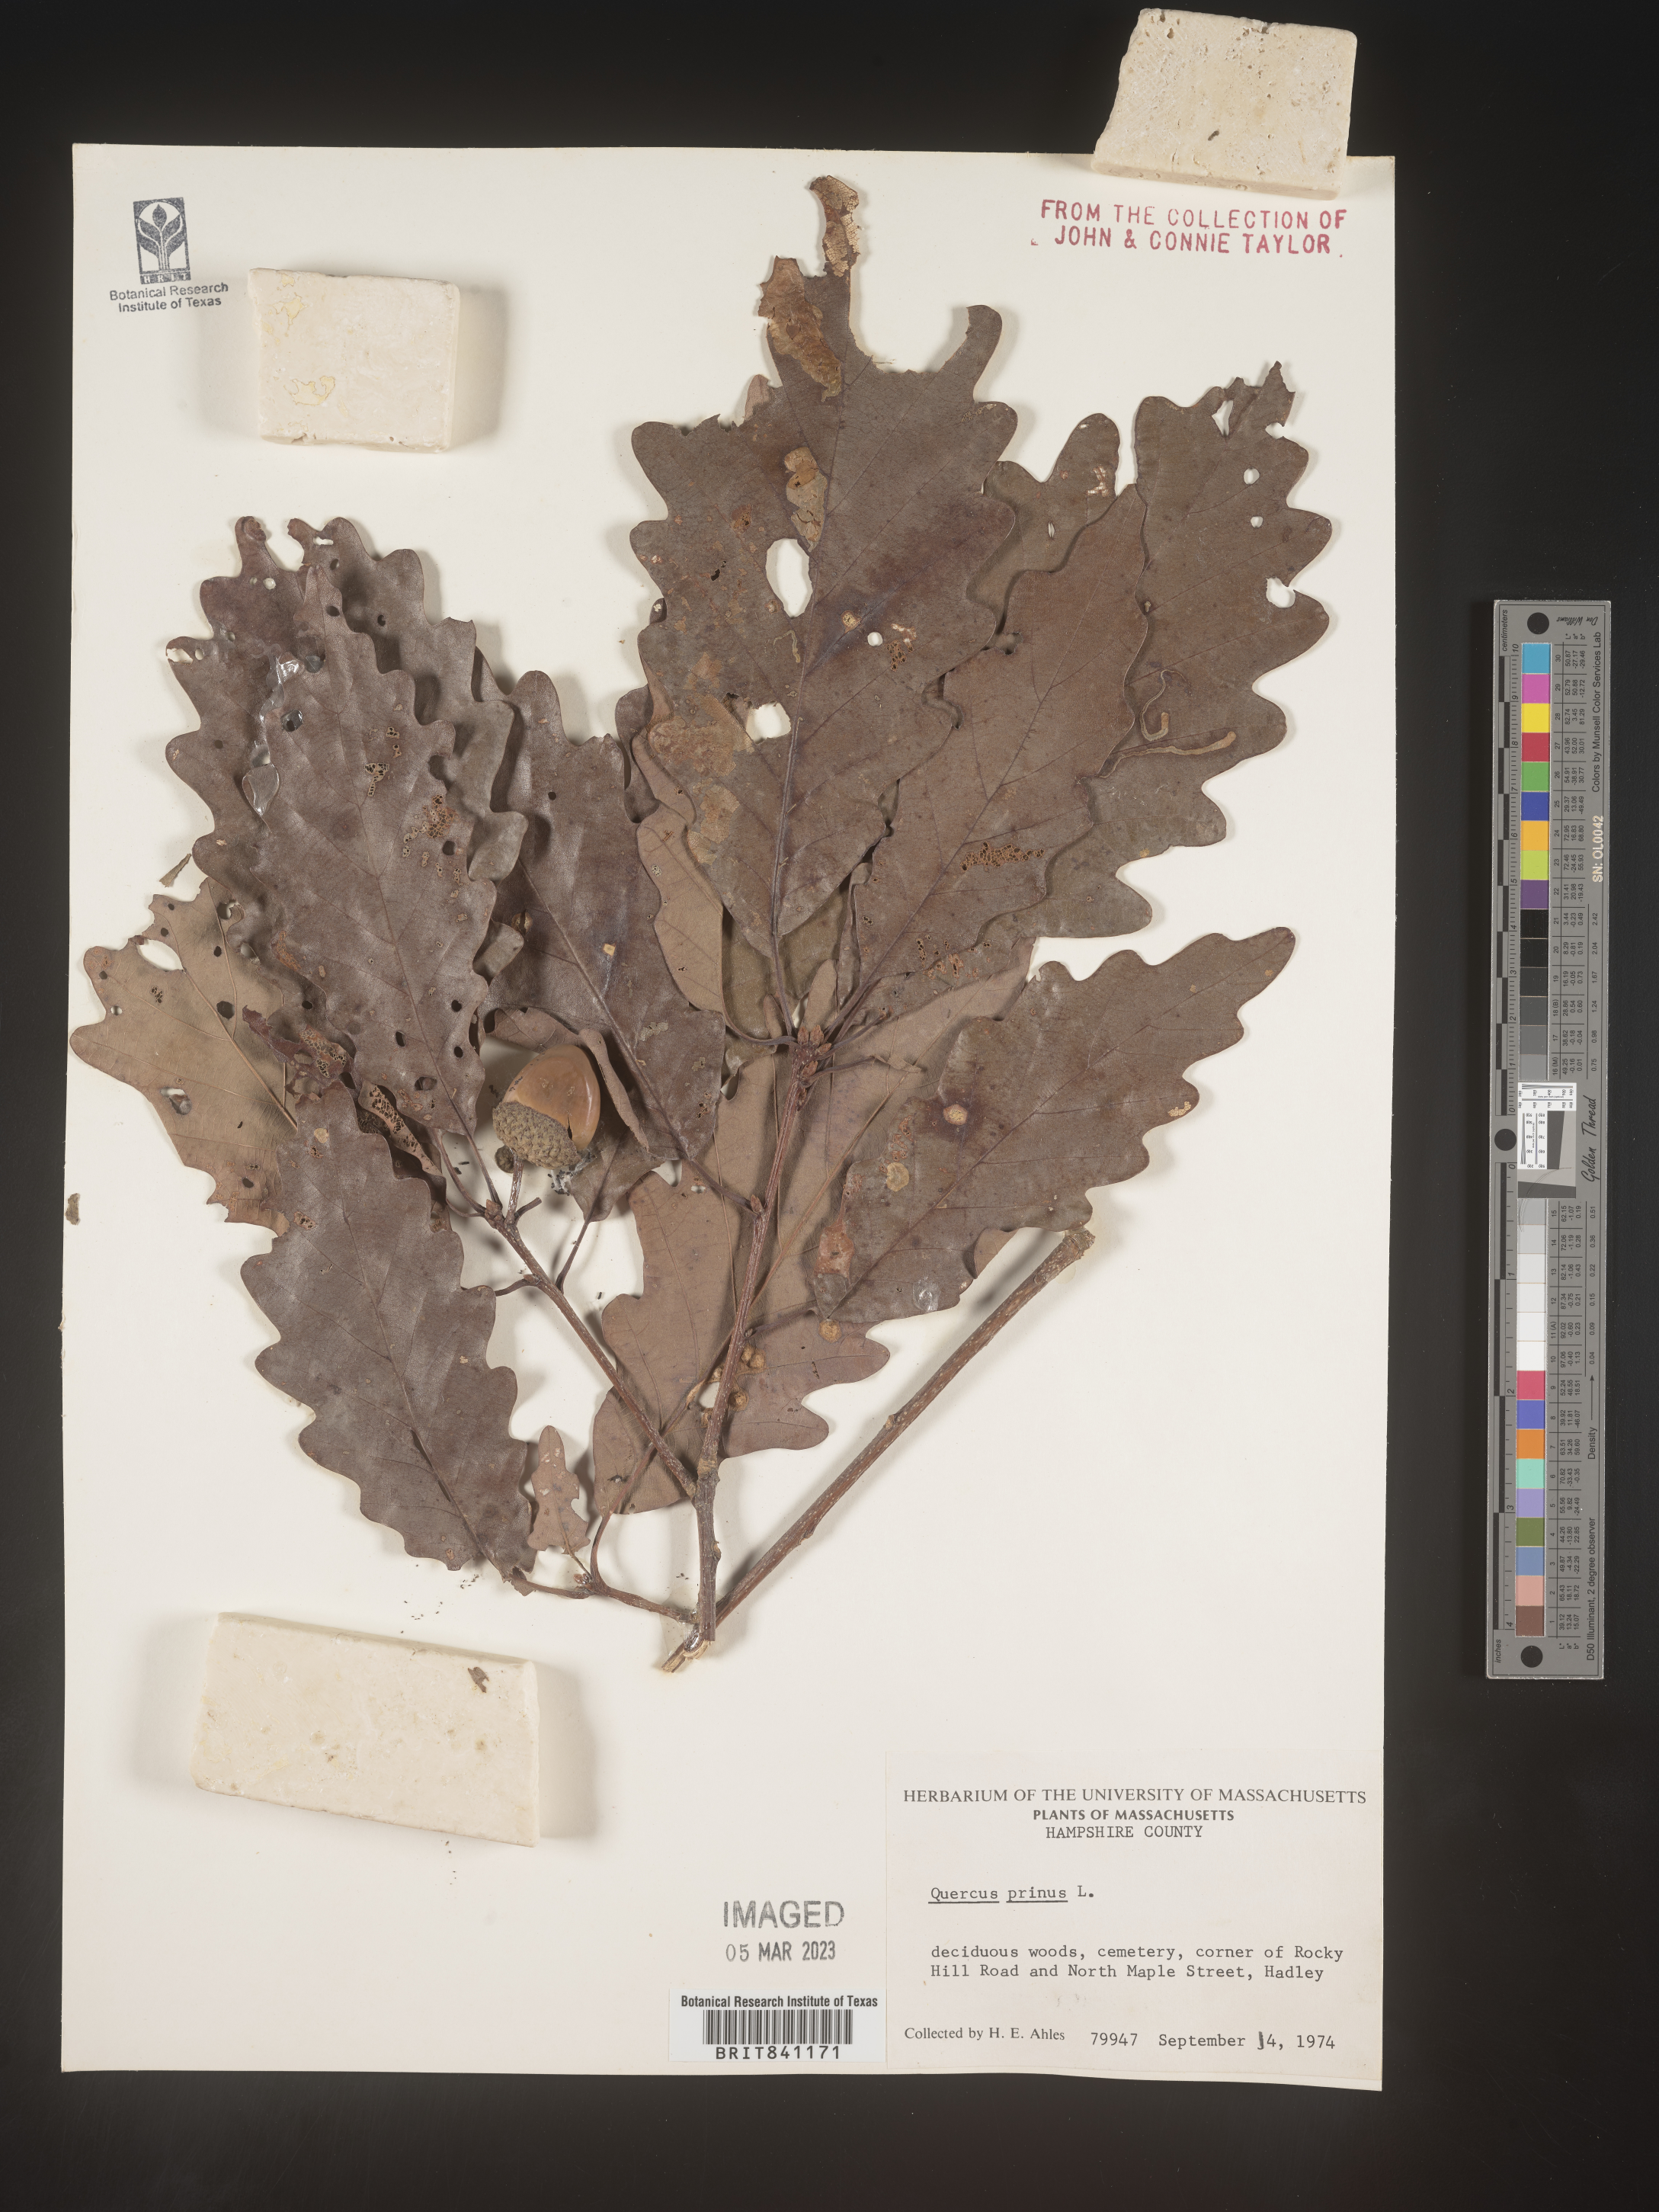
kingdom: Plantae
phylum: Tracheophyta
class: Magnoliopsida
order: Fagales
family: Fagaceae
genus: Quercus
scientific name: Quercus michauxii
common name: Swamp chestnut oak
